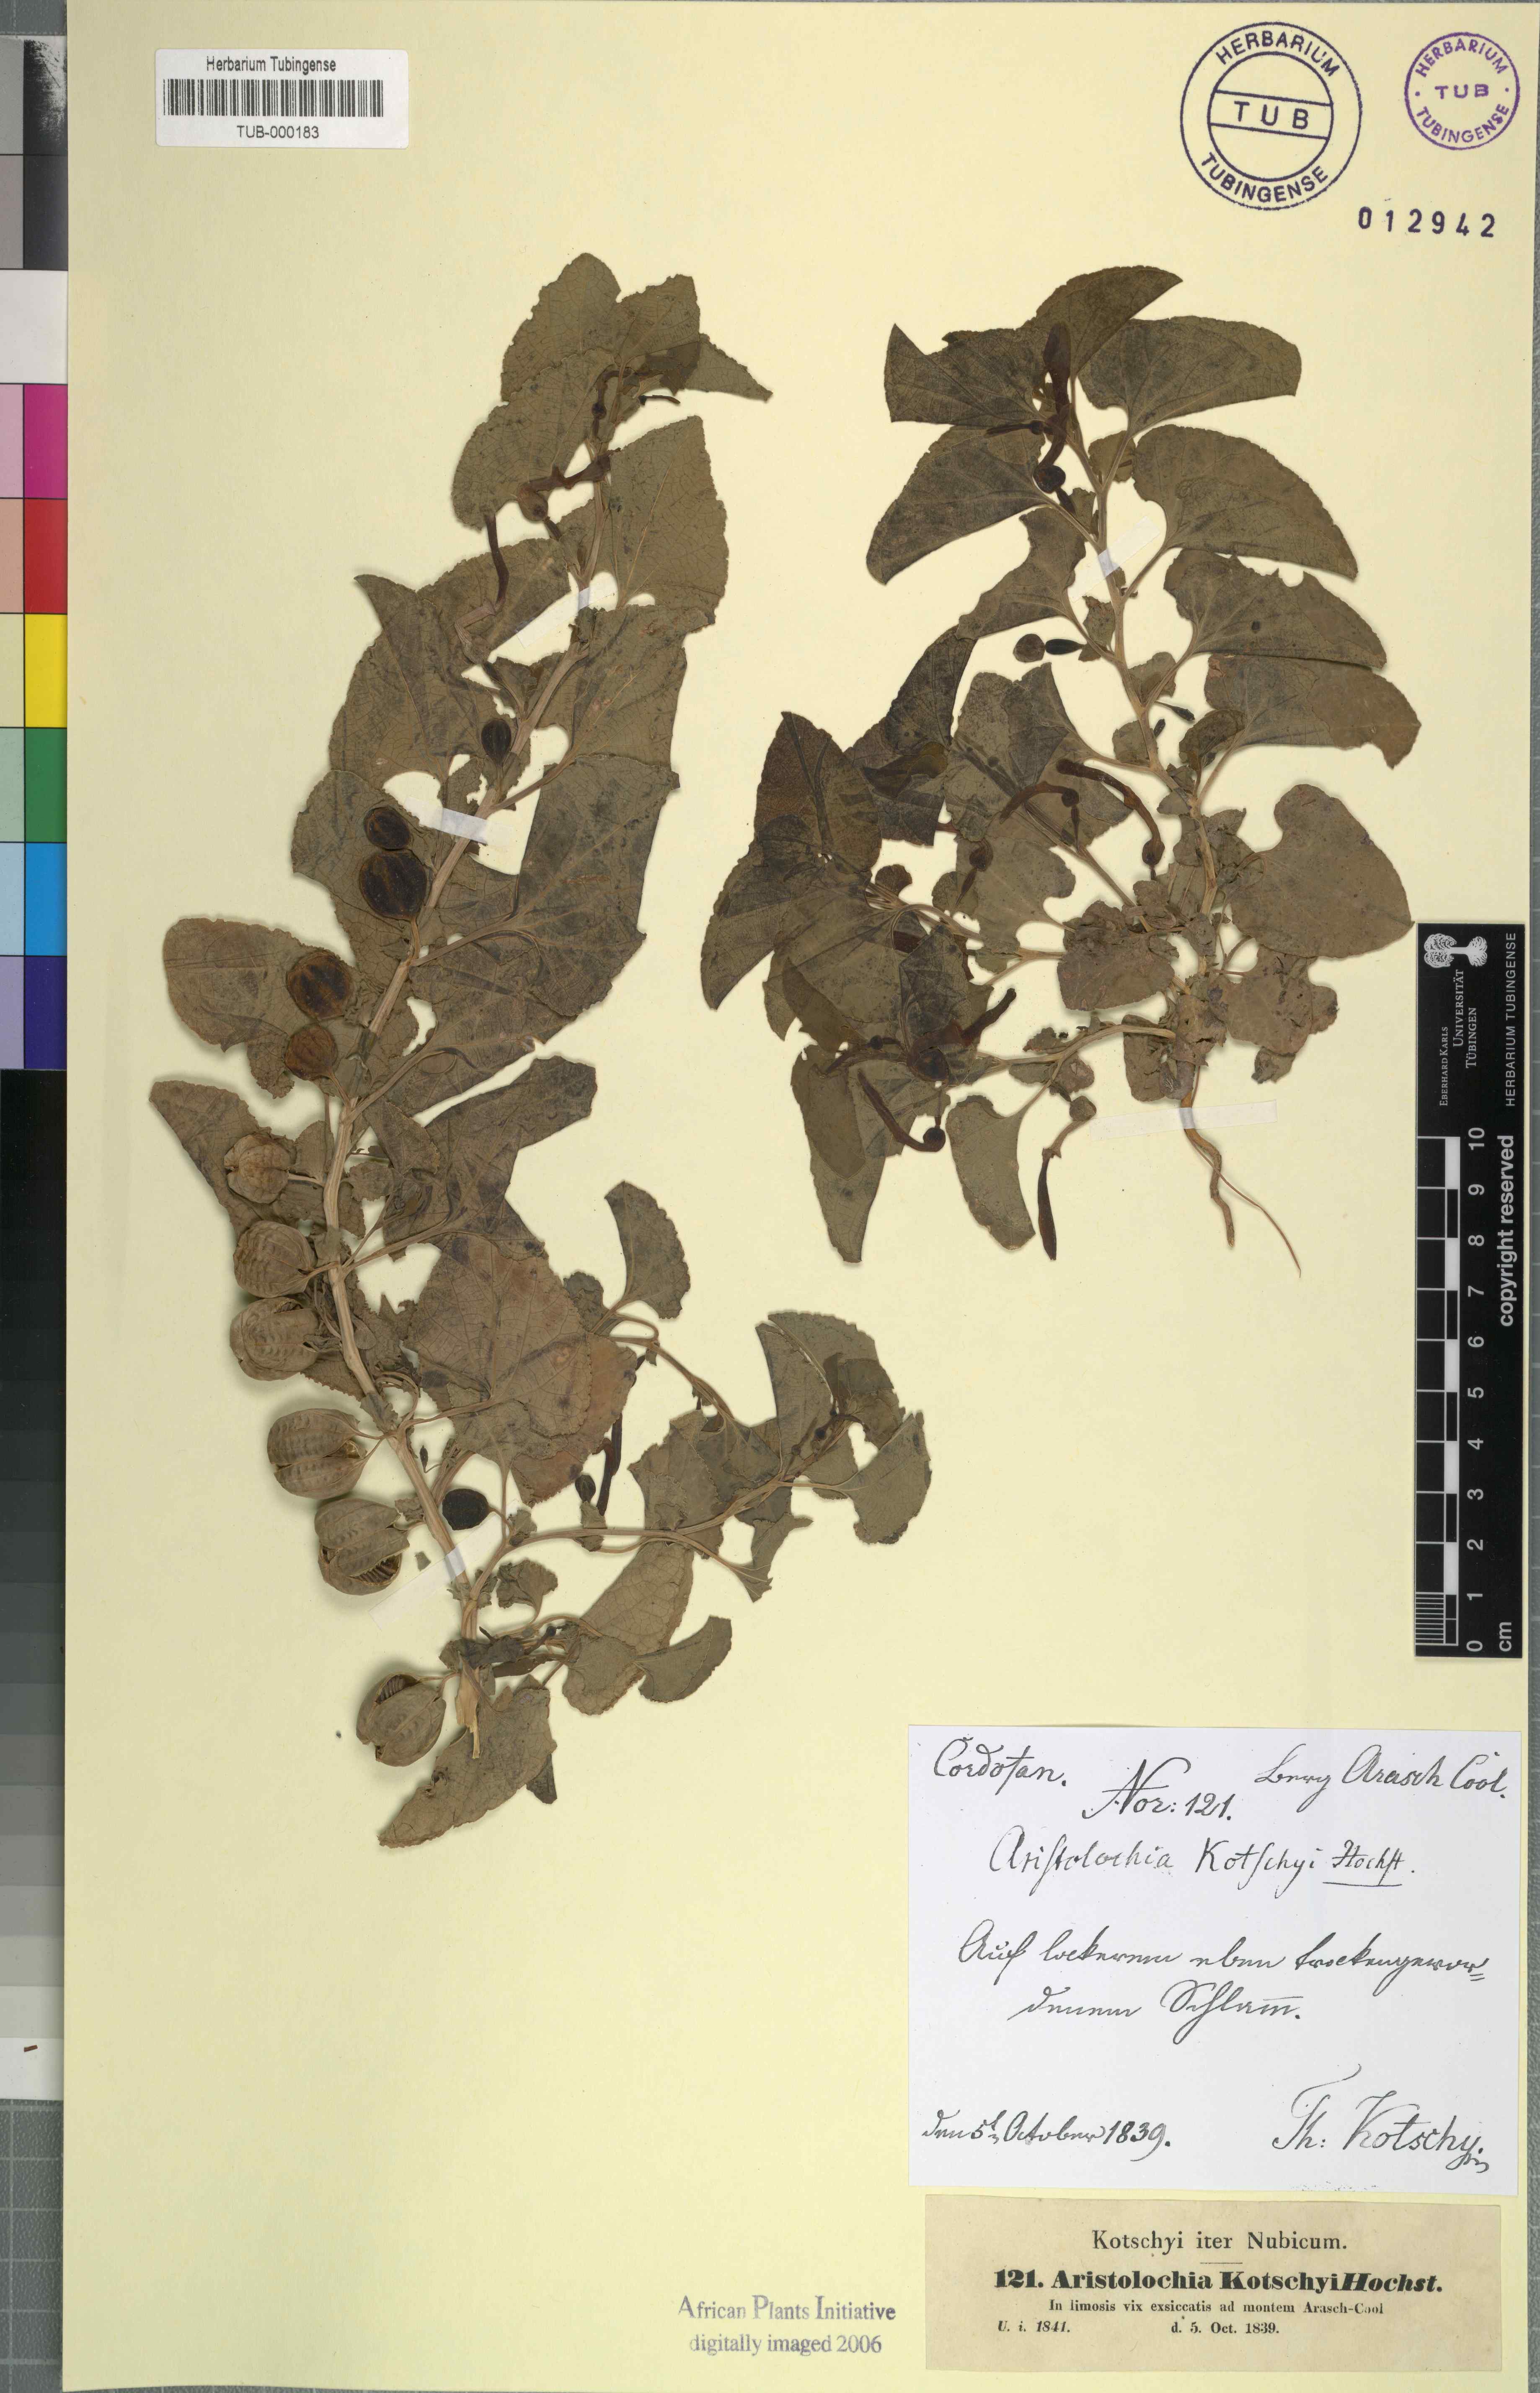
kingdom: Plantae
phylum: Tracheophyta
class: Magnoliopsida
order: Piperales
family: Aristolochiaceae
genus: Aristolochia
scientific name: Aristolochia bracteolata
